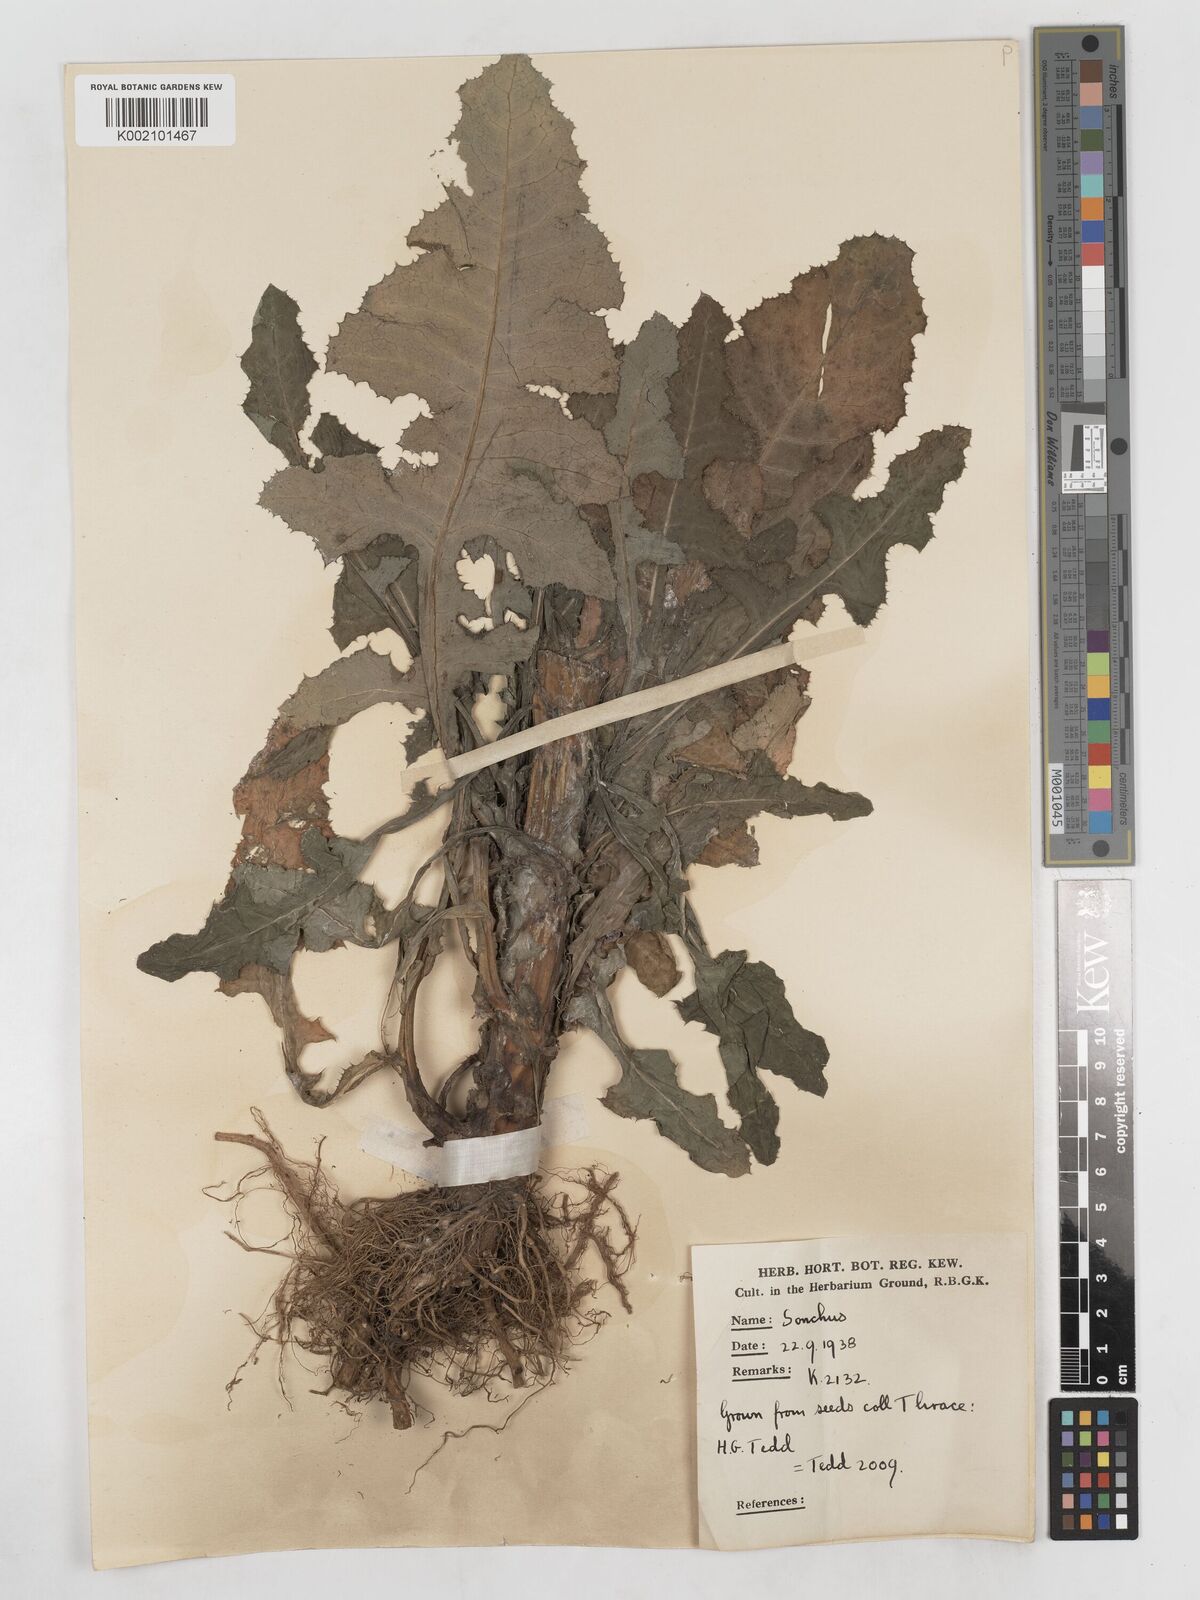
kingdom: Plantae
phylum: Tracheophyta
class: Magnoliopsida
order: Asterales
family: Asteraceae
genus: Sonchus
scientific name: Sonchus arvensis
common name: Perennial sow-thistle
